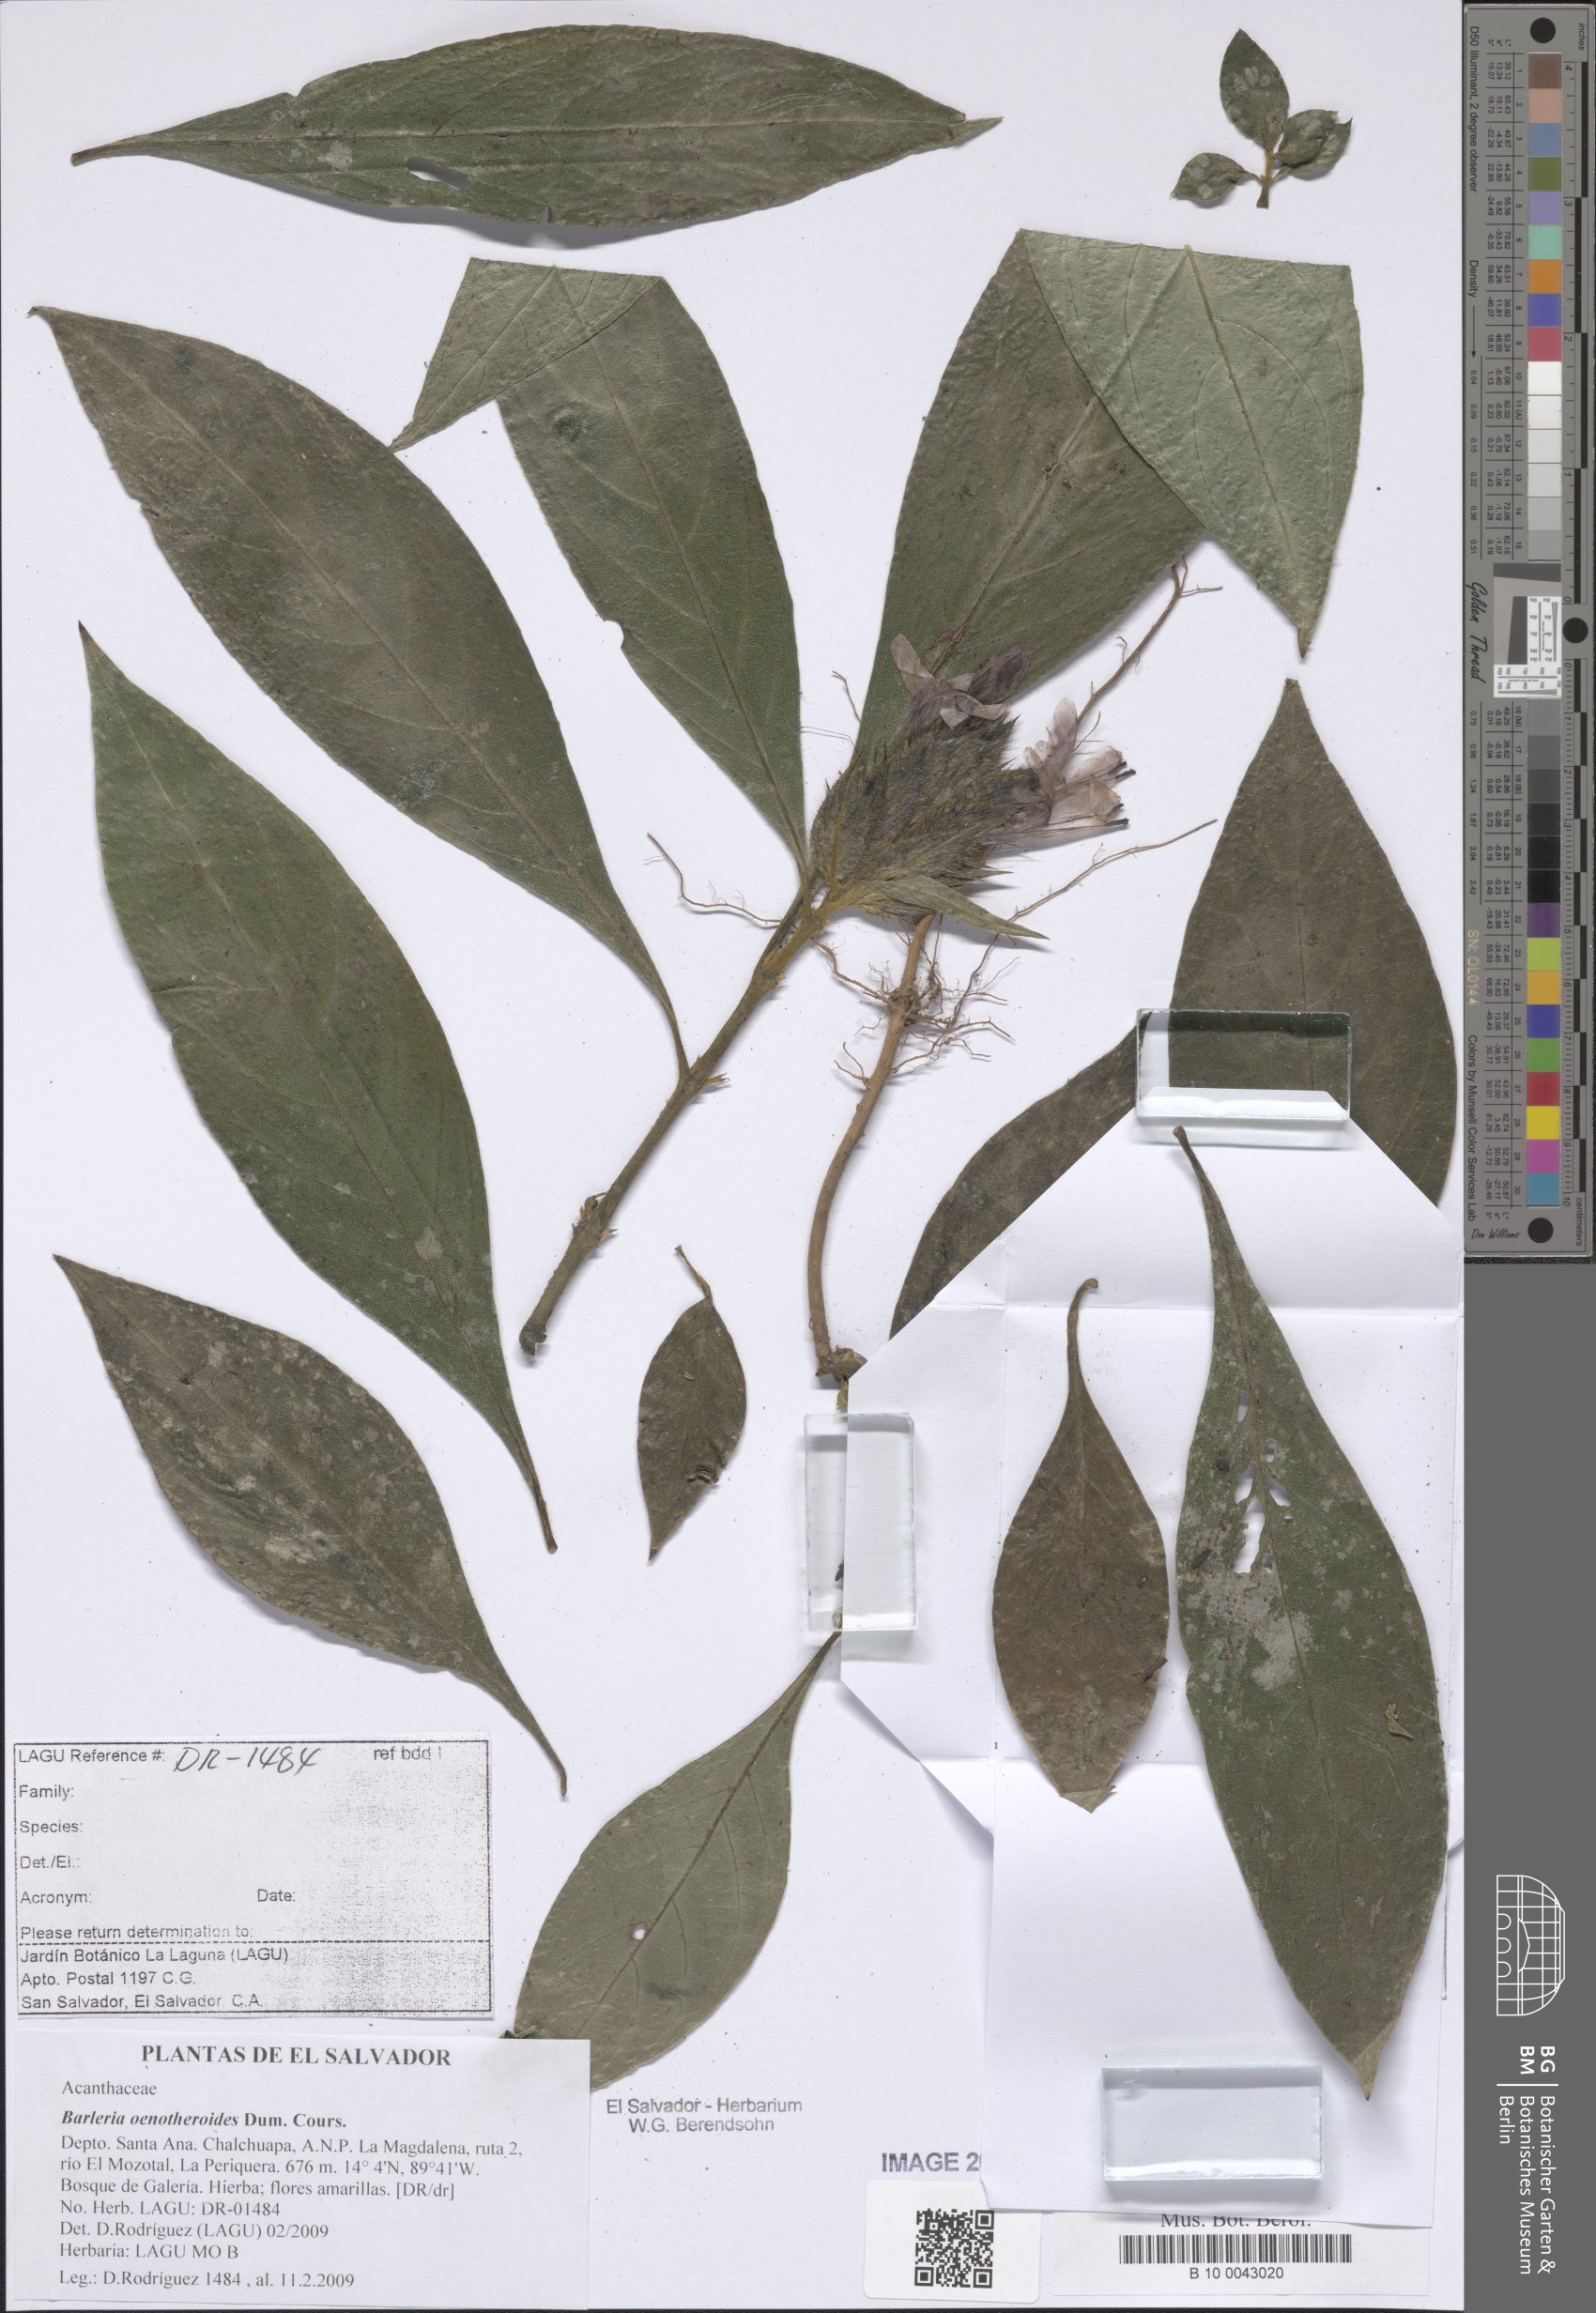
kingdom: Plantae
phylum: Tracheophyta
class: Magnoliopsida
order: Lamiales
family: Acanthaceae
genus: Barleria
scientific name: Barleria oenotheroides
